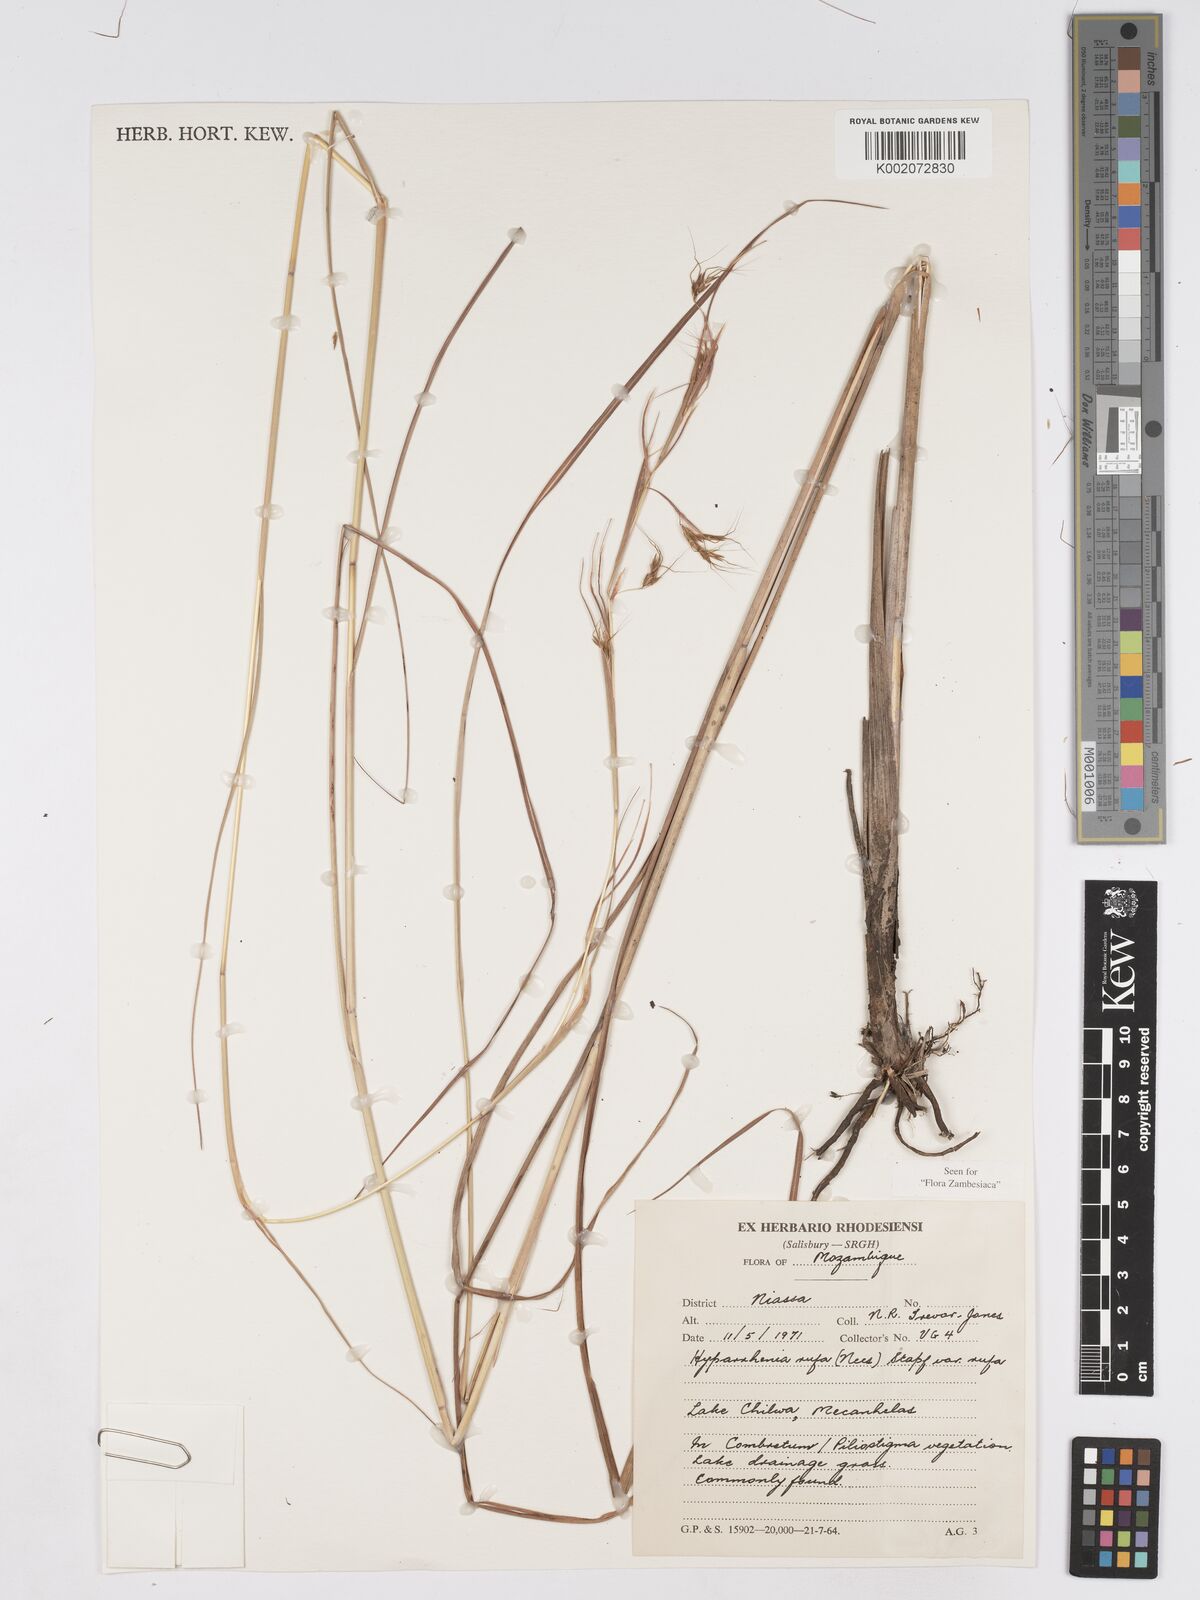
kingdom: Plantae
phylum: Tracheophyta
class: Liliopsida
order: Poales
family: Poaceae
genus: Hyparrhenia
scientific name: Hyparrhenia rufa
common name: Jaraguagrass
